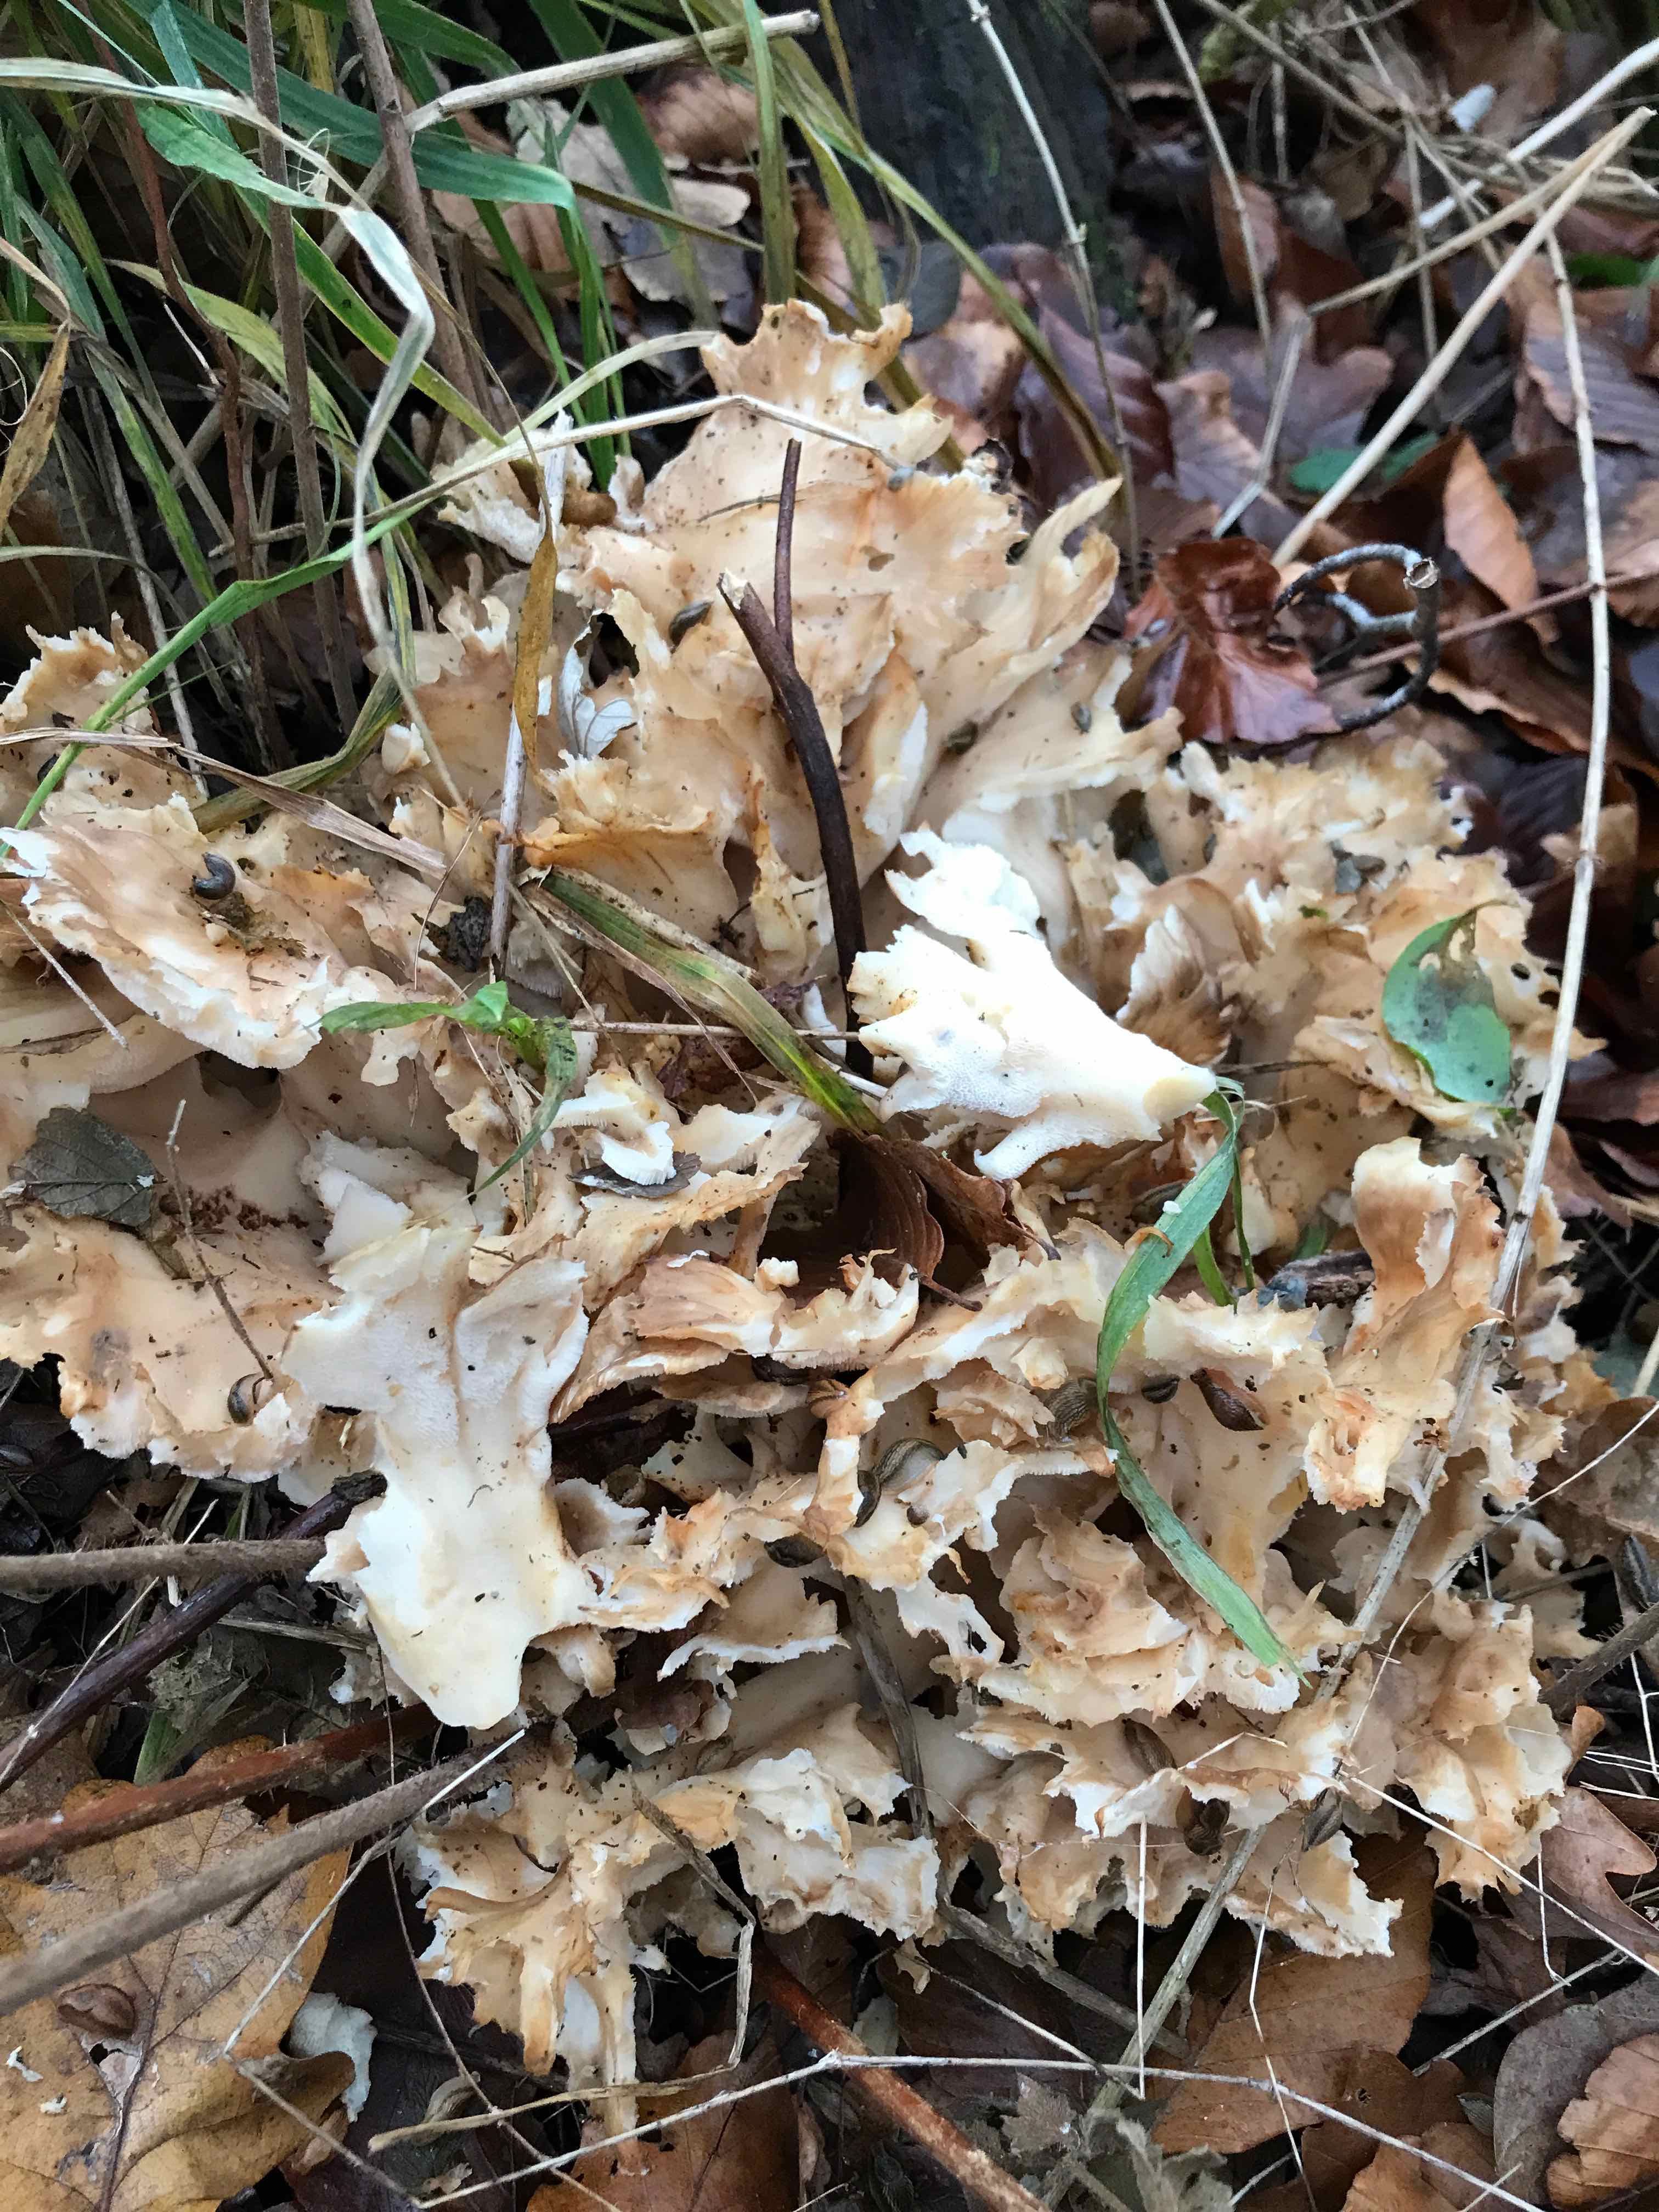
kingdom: Fungi
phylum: Basidiomycota
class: Agaricomycetes
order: Polyporales
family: Grifolaceae
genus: Grifola
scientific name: Grifola frondosa
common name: tueporesvamp
